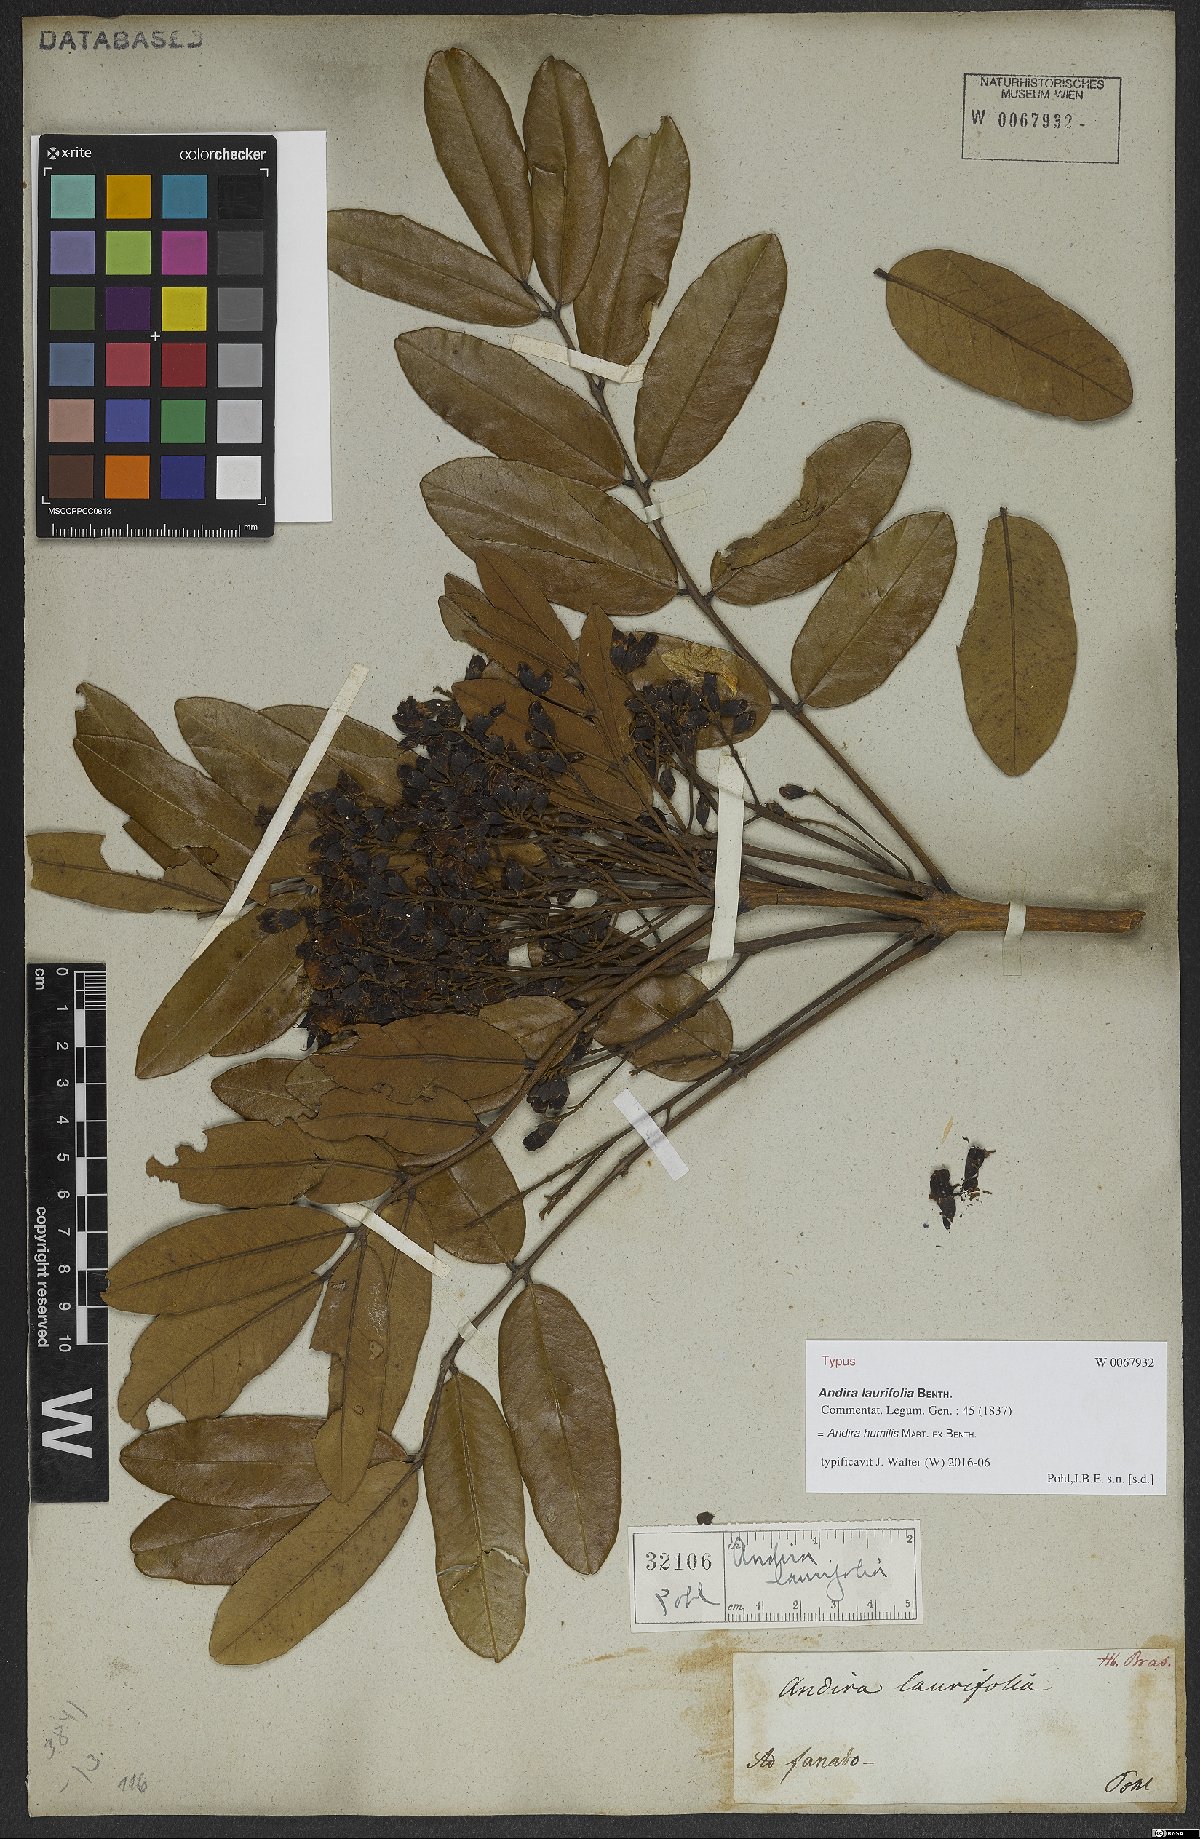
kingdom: Plantae
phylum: Tracheophyta
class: Magnoliopsida
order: Fabales
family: Fabaceae
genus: Andira
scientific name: Andira humilis
